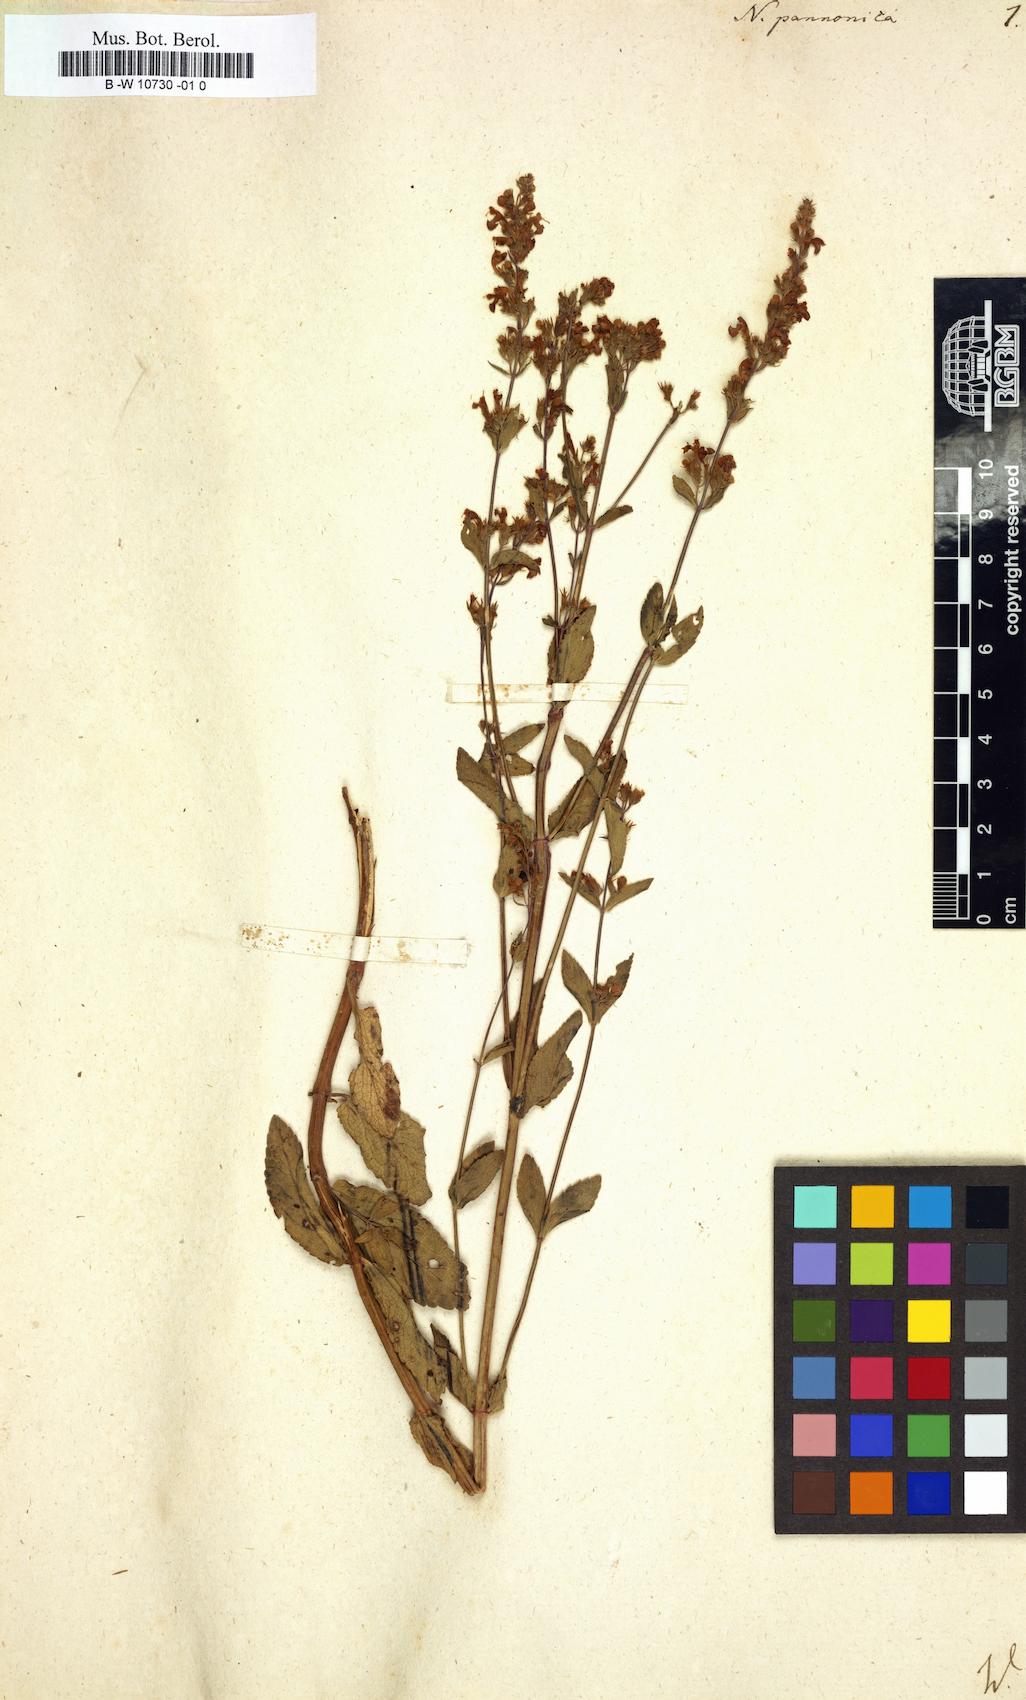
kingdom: Plantae
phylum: Tracheophyta
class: Magnoliopsida
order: Lamiales
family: Lamiaceae
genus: Nepeta
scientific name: Nepeta nuda
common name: Hairless catmint
